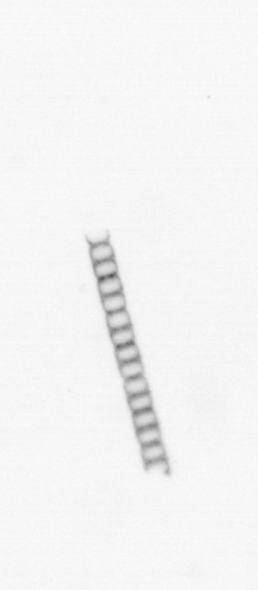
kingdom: Chromista
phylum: Ochrophyta
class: Bacillariophyceae
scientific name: Bacillariophyceae
